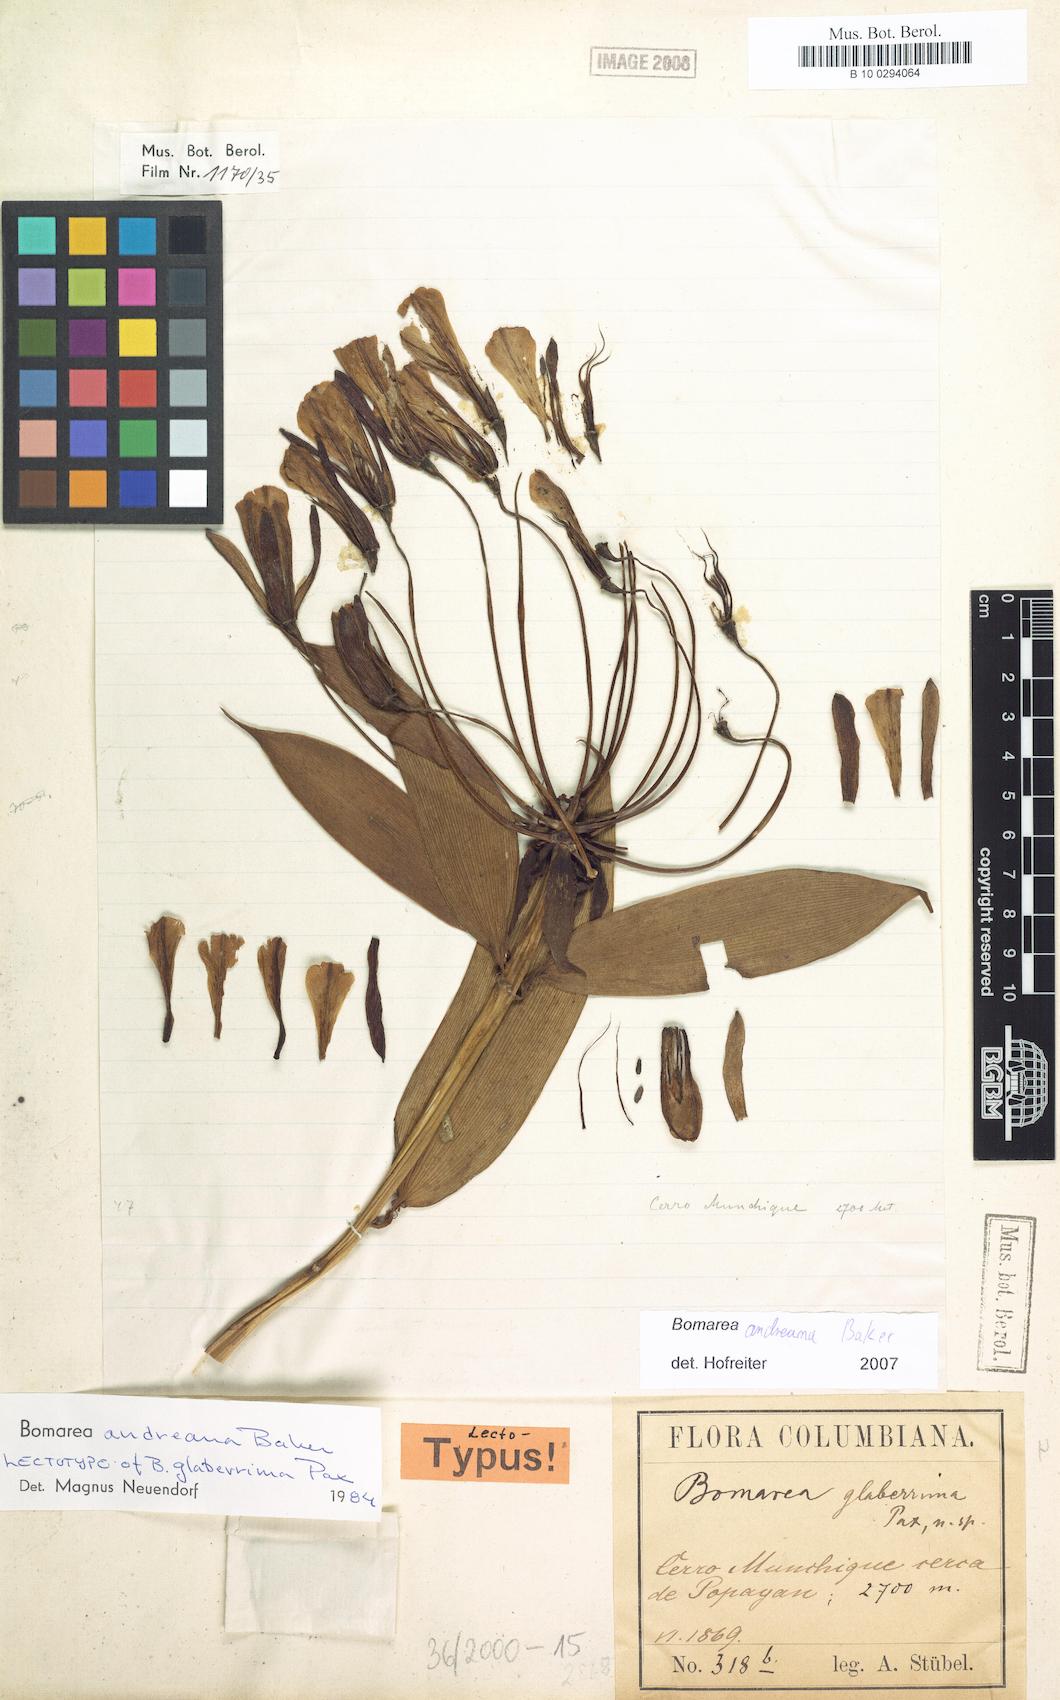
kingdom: Plantae
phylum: Tracheophyta
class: Liliopsida
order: Liliales
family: Alstroemeriaceae
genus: Bomarea
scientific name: Bomarea andreana
